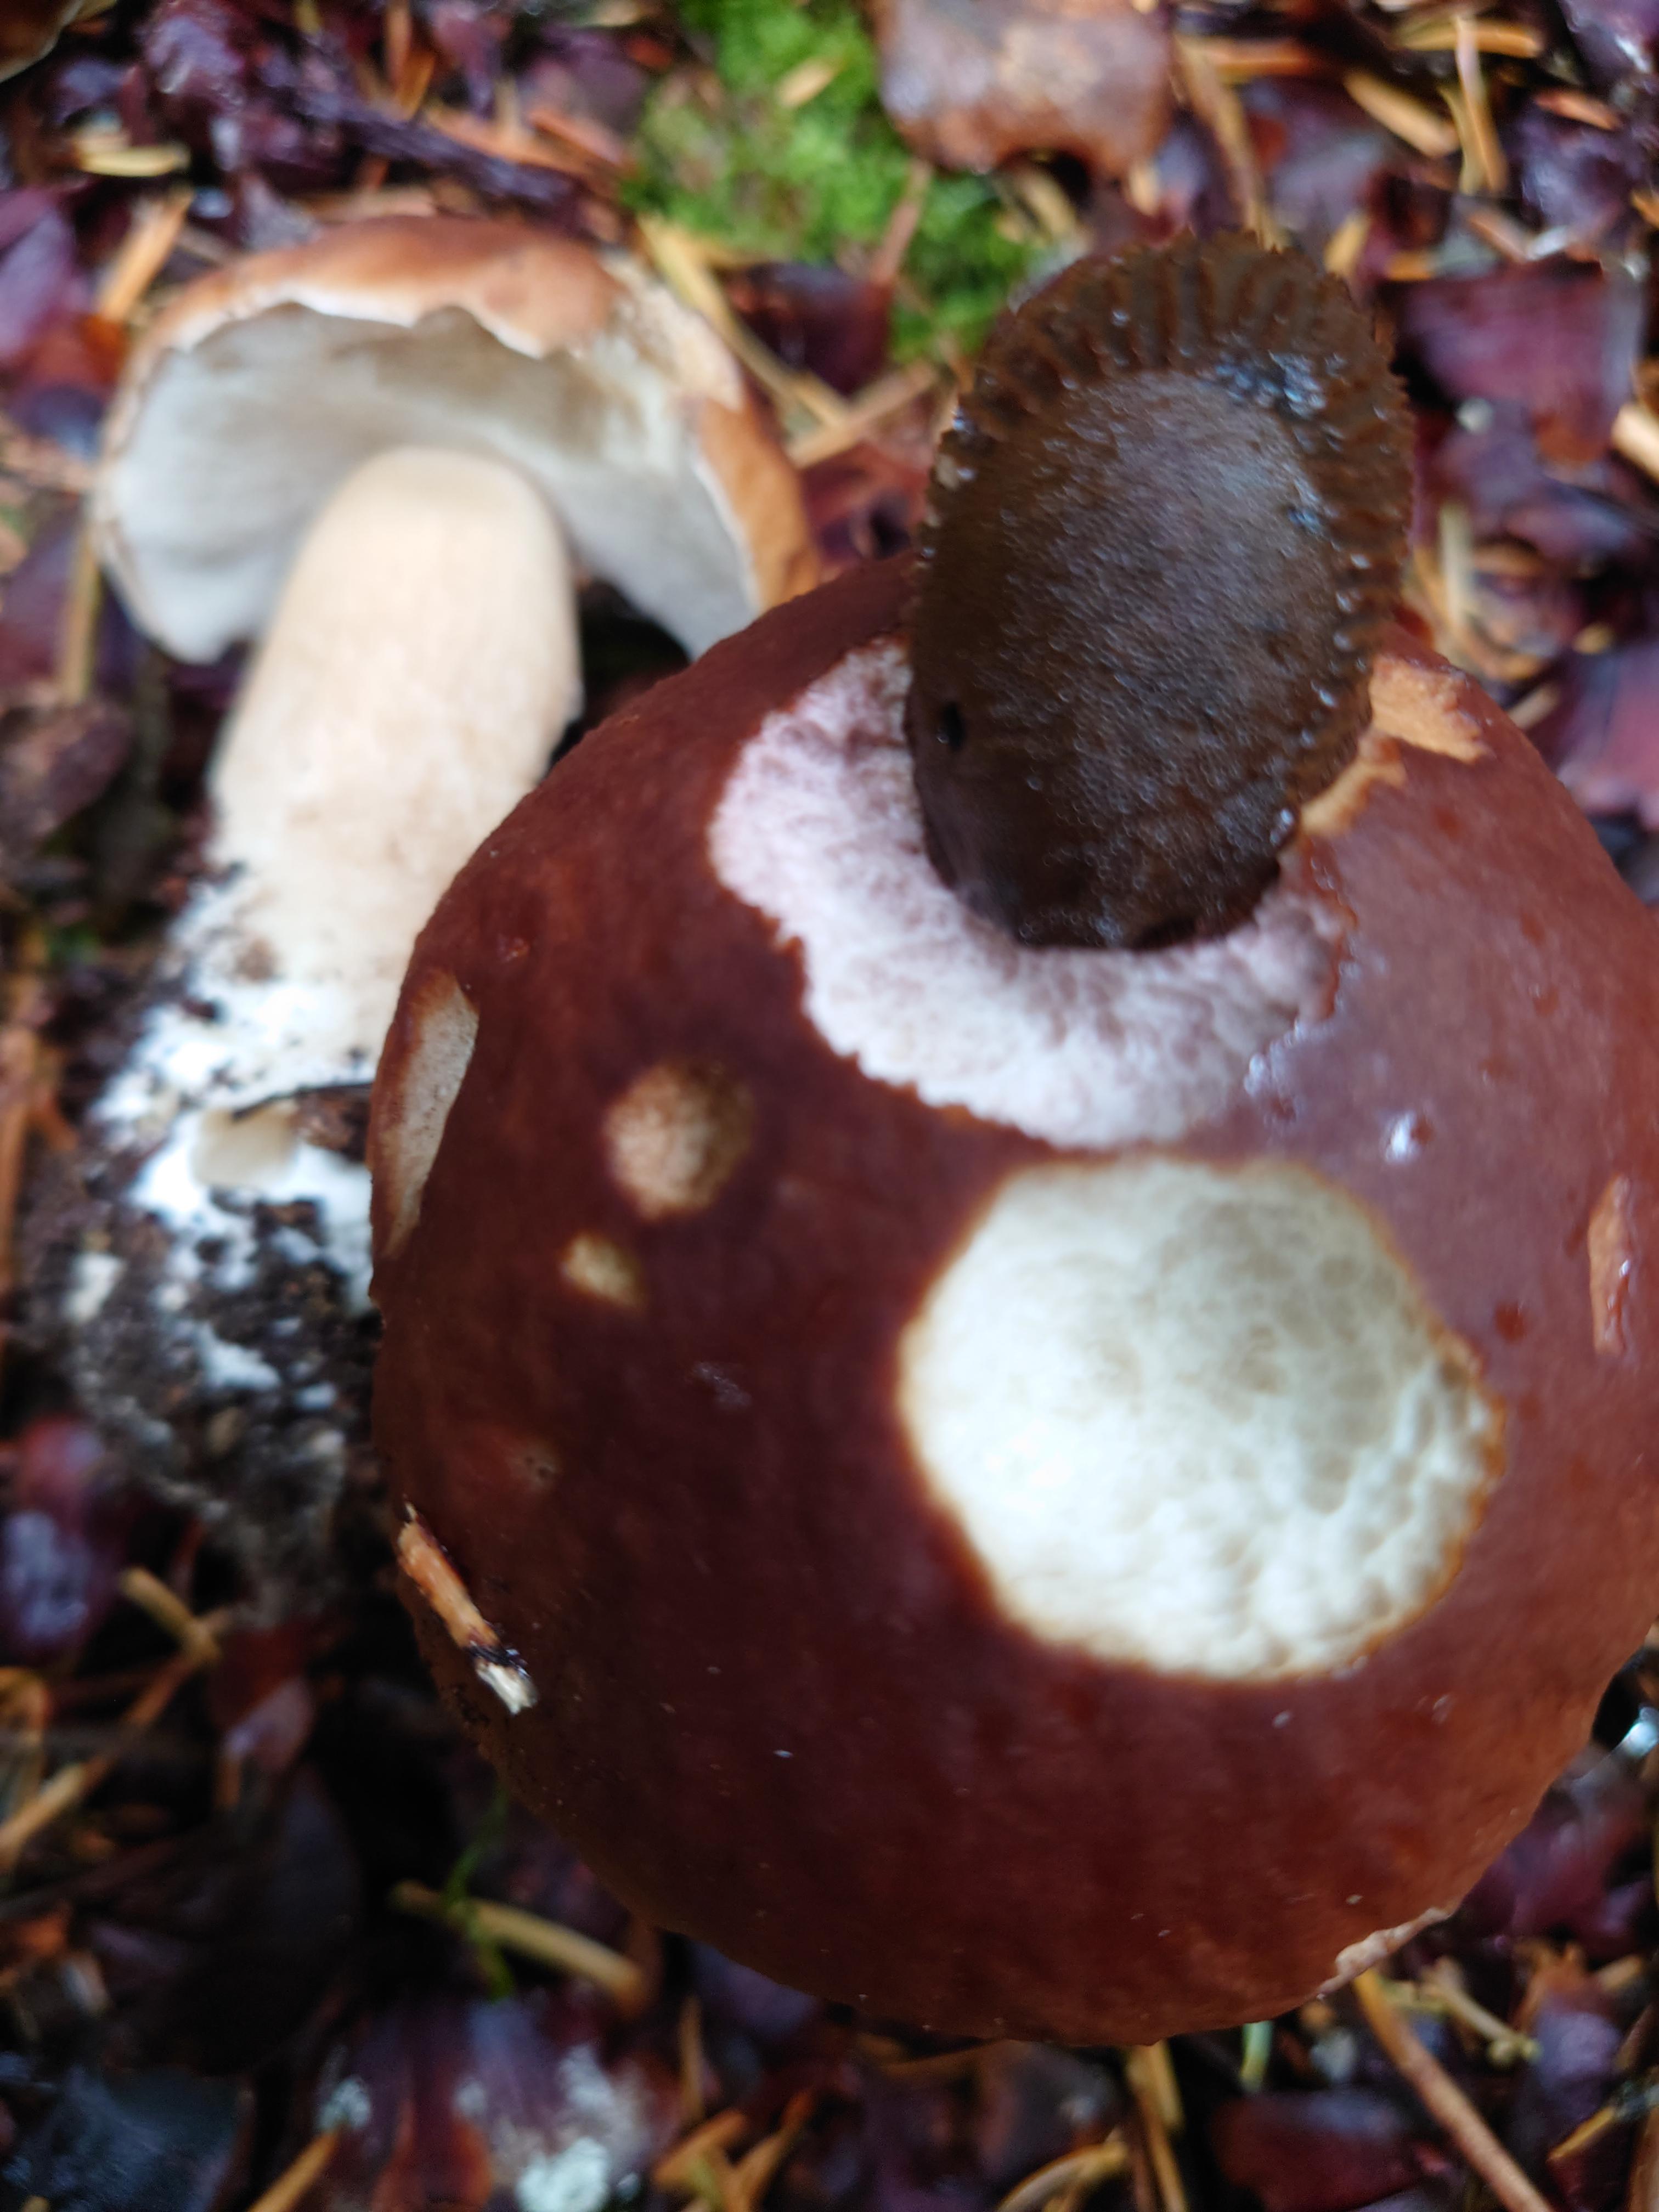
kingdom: Fungi
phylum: Basidiomycota
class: Agaricomycetes
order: Boletales
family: Boletaceae
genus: Boletus
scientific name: Boletus edulis
